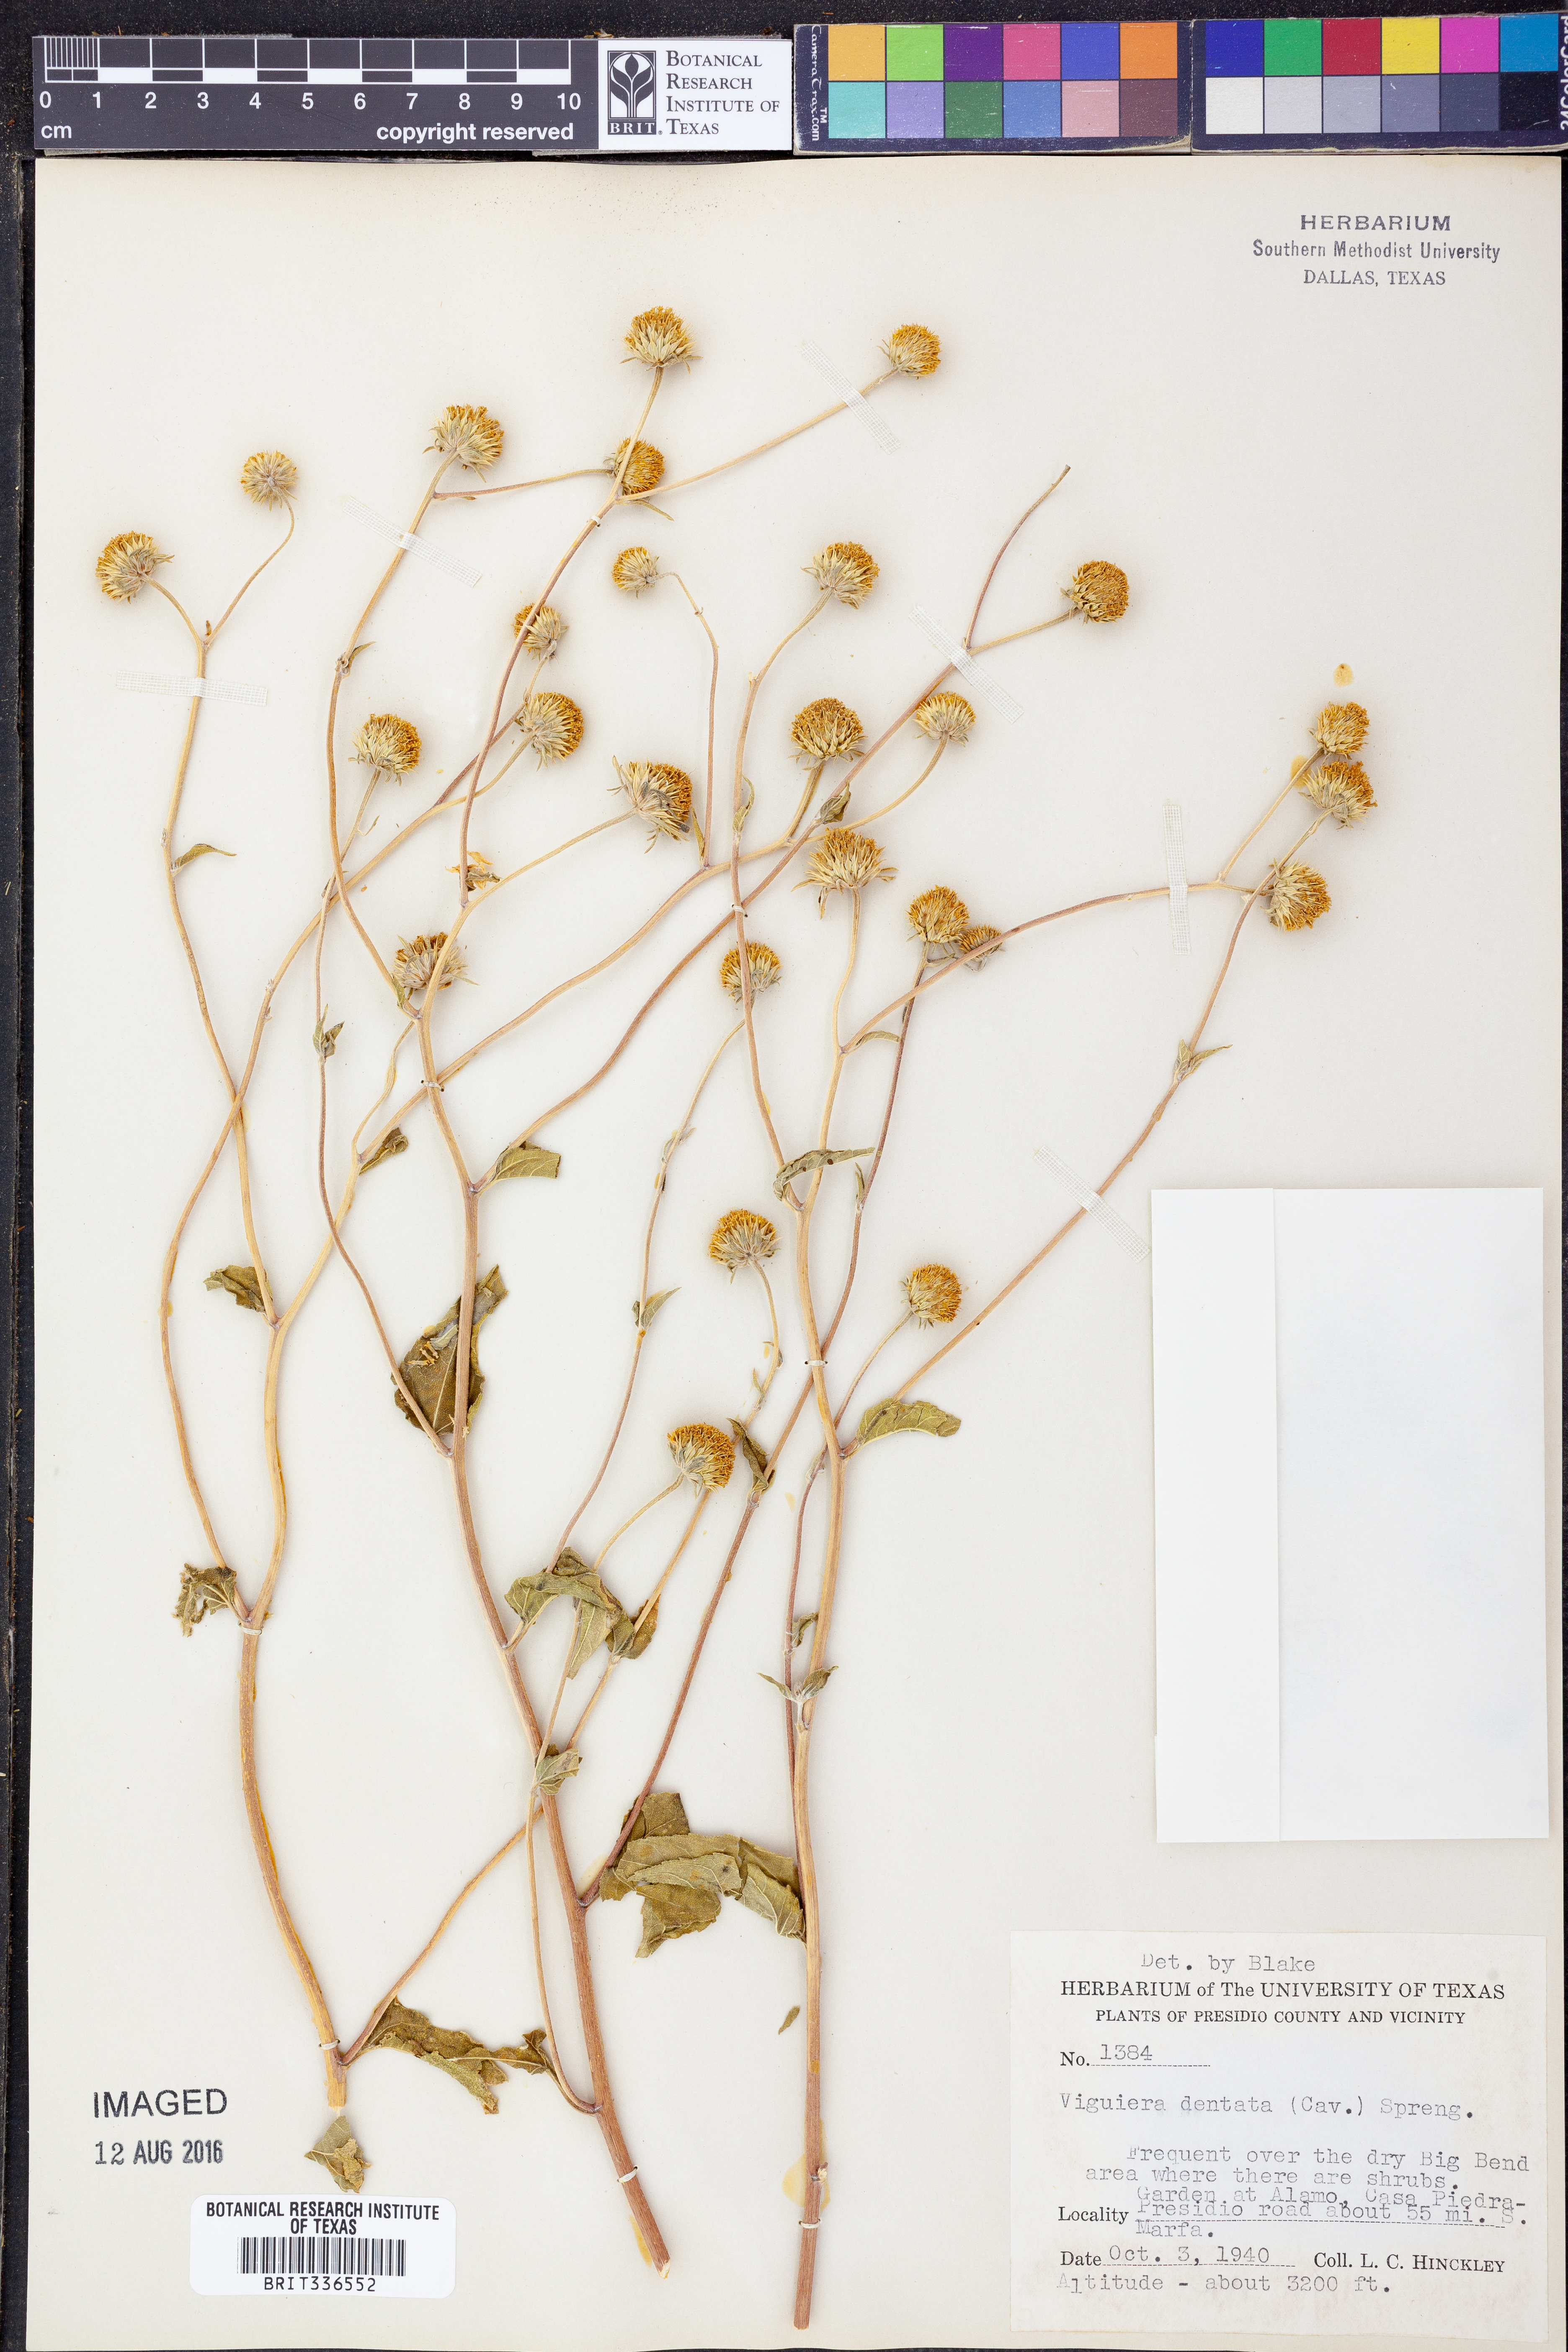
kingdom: Plantae
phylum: Tracheophyta
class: Magnoliopsida
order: Asterales
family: Asteraceae
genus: Viguiera
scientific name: Viguiera dentata
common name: Toothleaf
